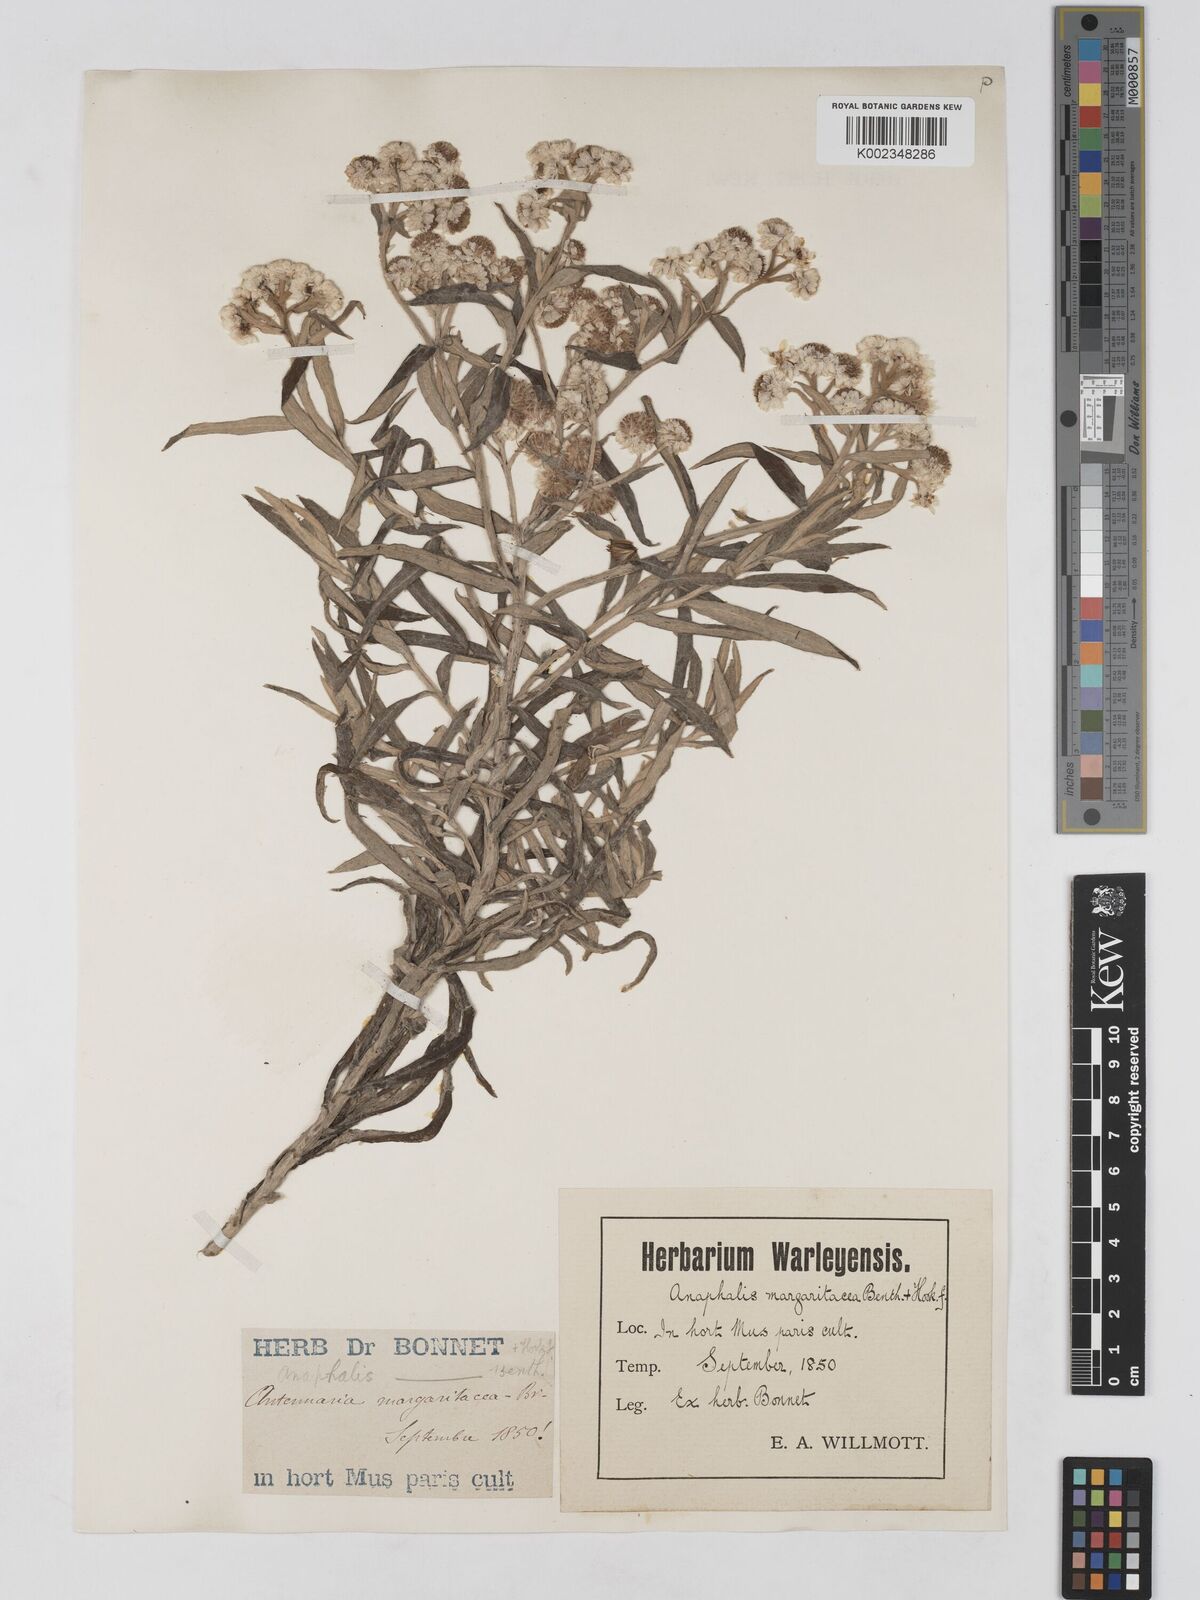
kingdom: Plantae
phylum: Tracheophyta
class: Magnoliopsida
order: Asterales
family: Asteraceae
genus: Anaphalis
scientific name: Anaphalis margaritacea
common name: Pearly everlasting
